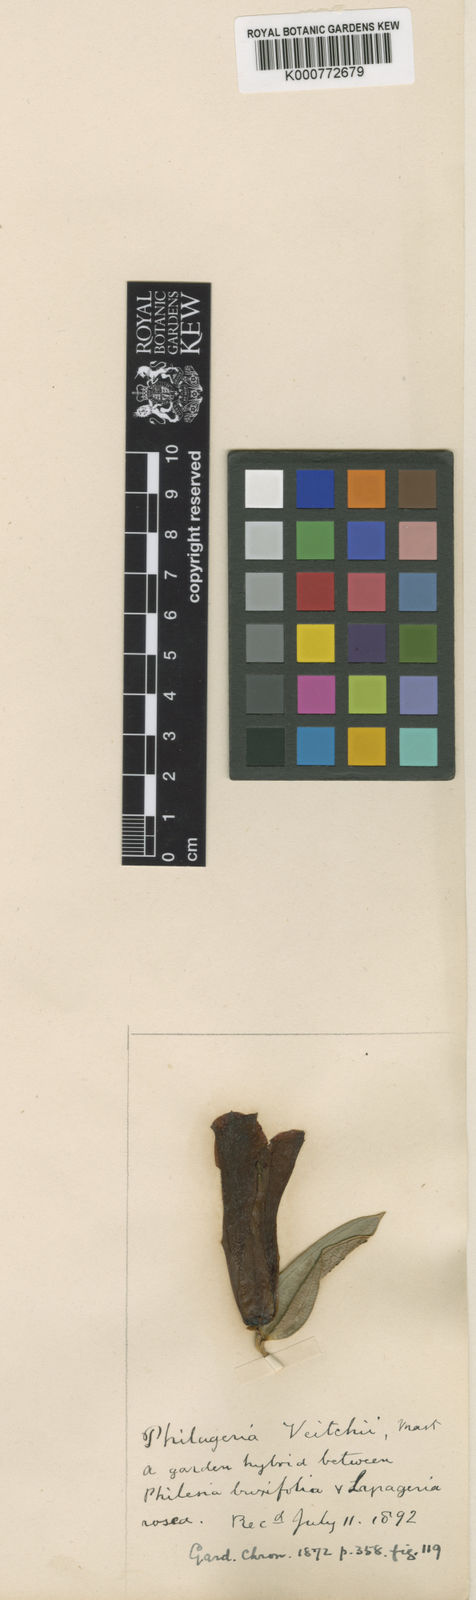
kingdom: Plantae
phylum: Tracheophyta
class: Liliopsida
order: Liliales
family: Philesiaceae
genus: Philageria
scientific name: Philageria veitchii
